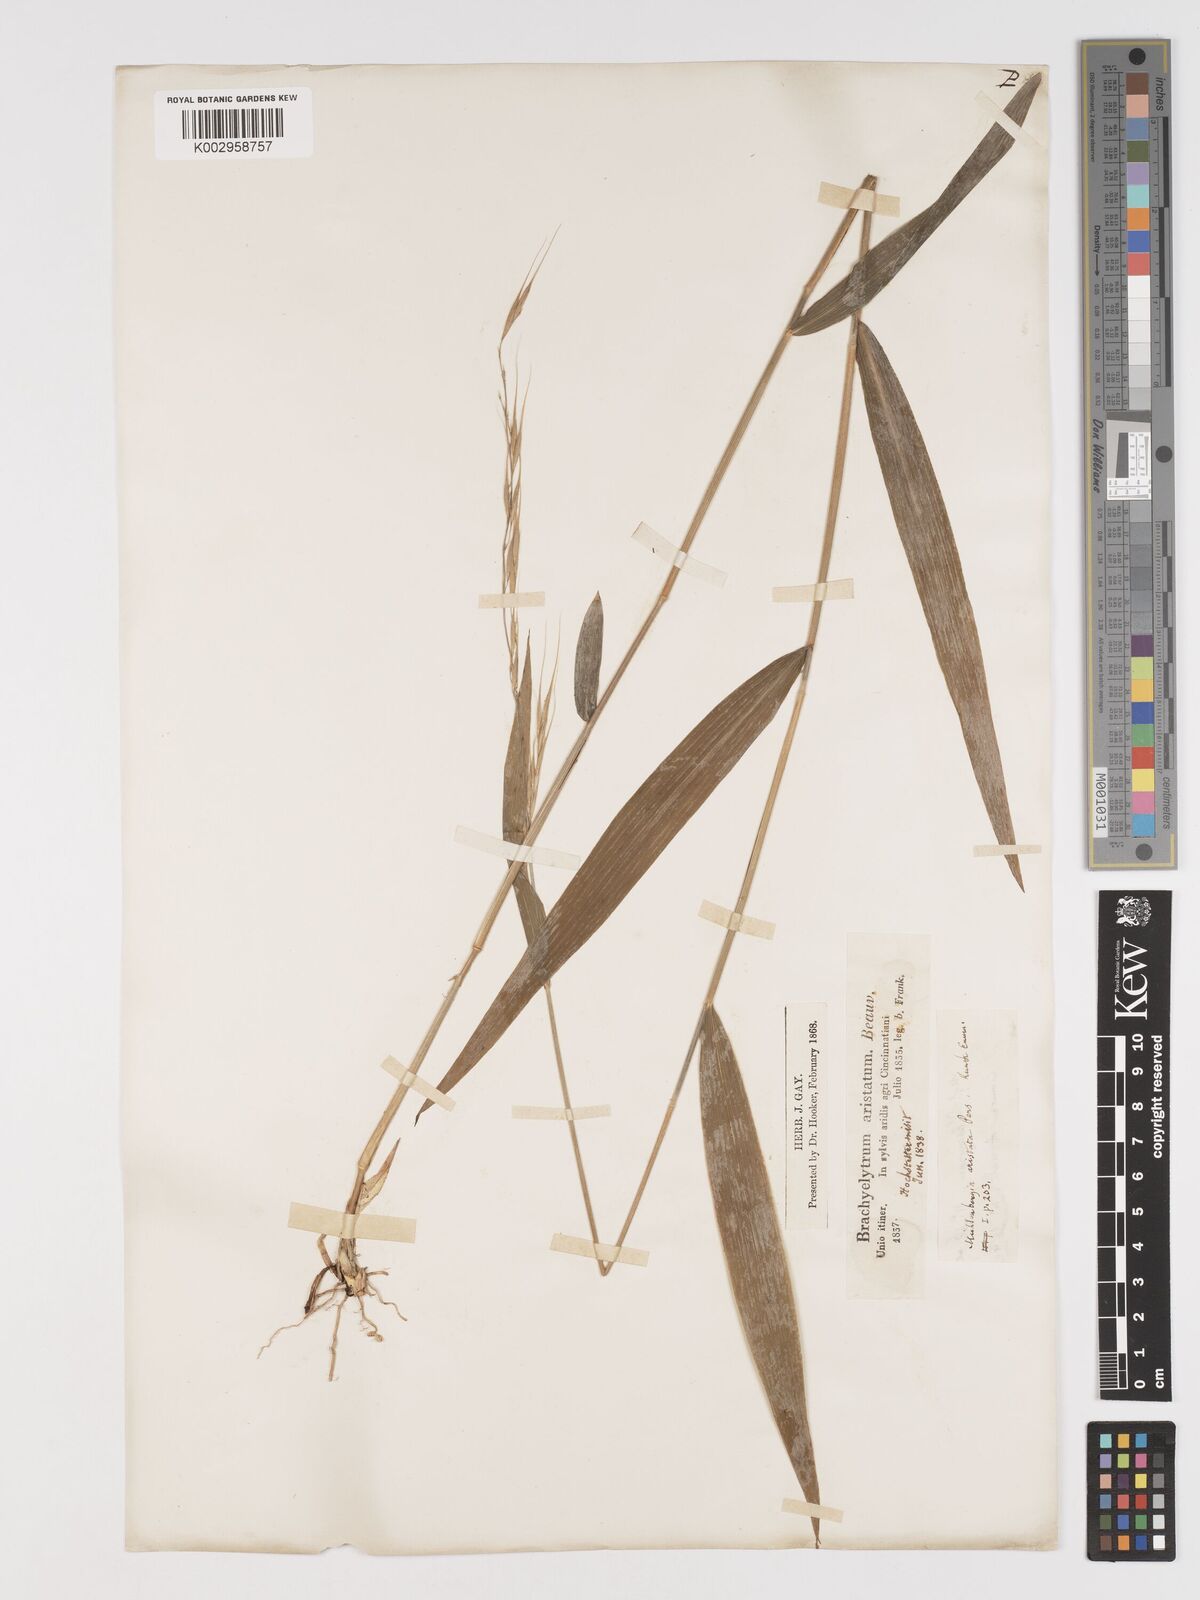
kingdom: Plantae
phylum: Tracheophyta
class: Liliopsida
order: Poales
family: Poaceae
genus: Brachyelytrum
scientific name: Brachyelytrum erectum
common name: Bearded shorthusk
